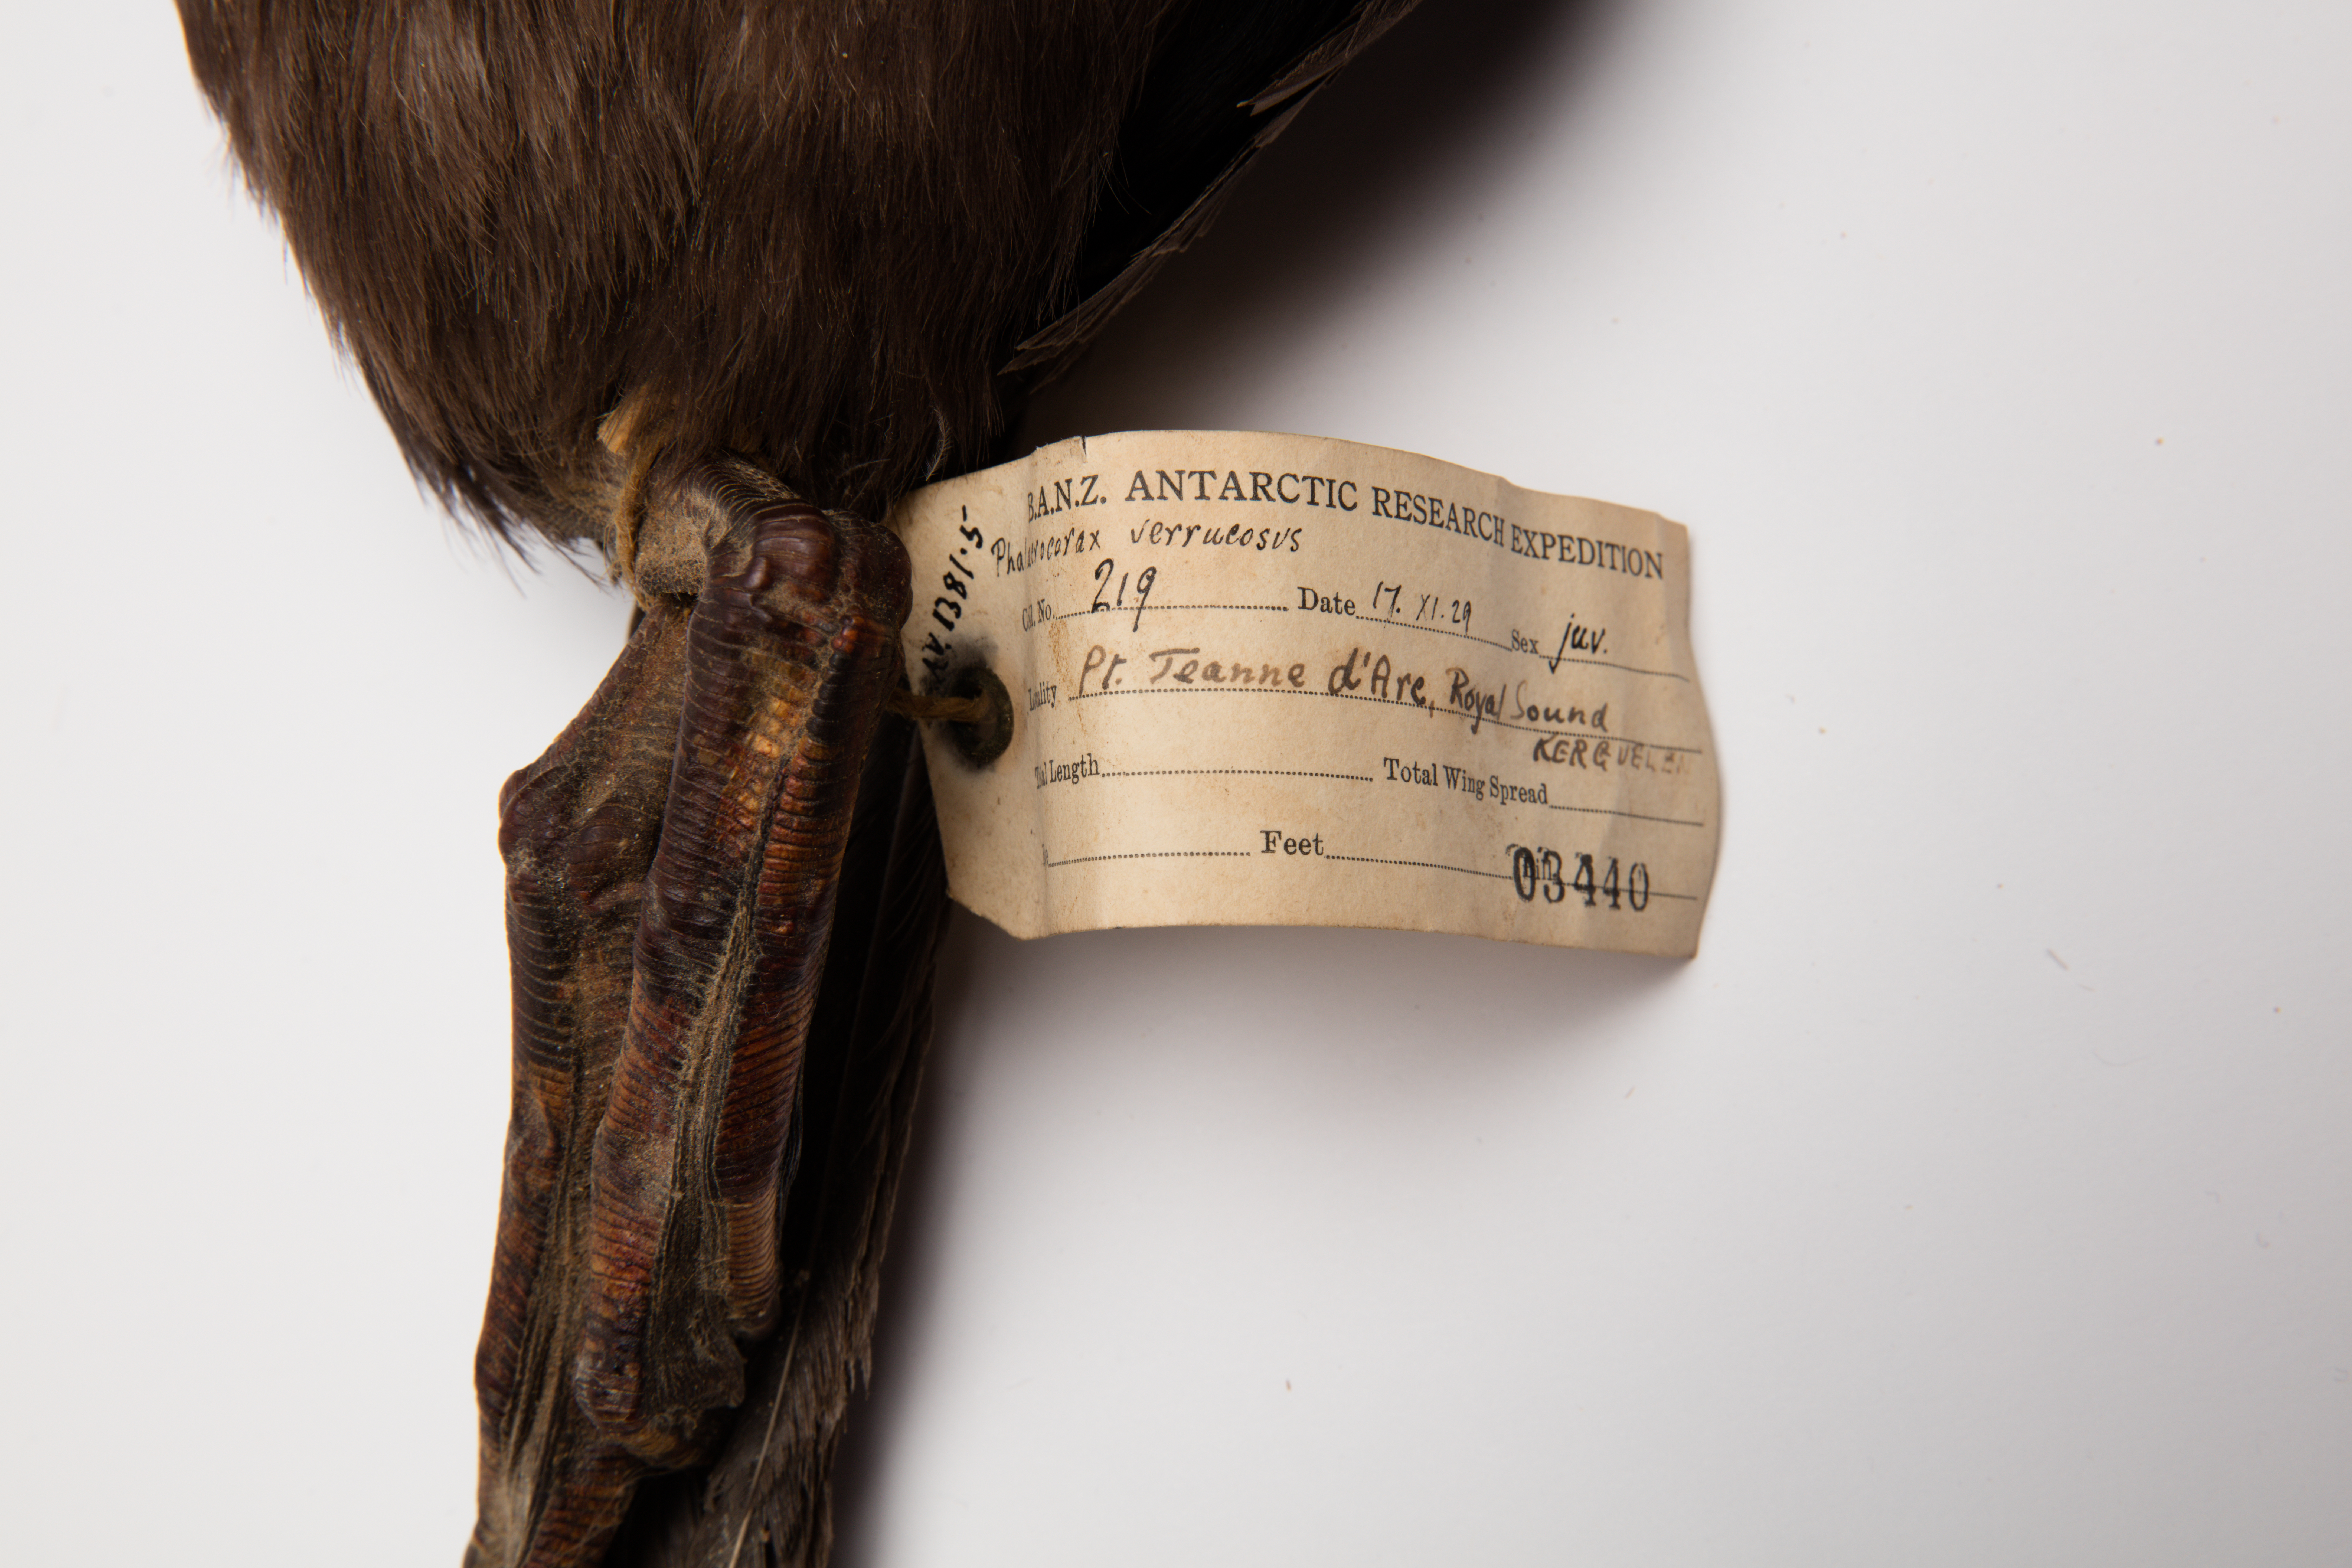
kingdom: Animalia
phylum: Chordata
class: Aves
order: Suliformes
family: Phalacrocoracidae
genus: Leucocarbo
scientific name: Leucocarbo verrucosus
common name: Kerguelen shag
